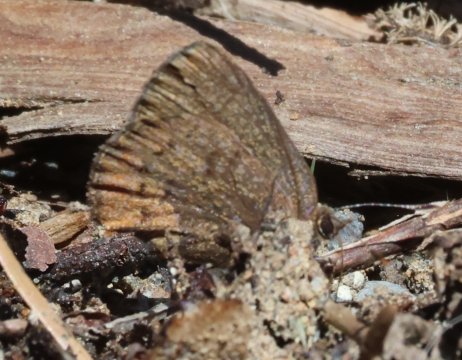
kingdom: Animalia
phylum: Arthropoda
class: Insecta
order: Lepidoptera
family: Lycaenidae
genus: Incisalia
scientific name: Incisalia irioides
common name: Brown Elfin
